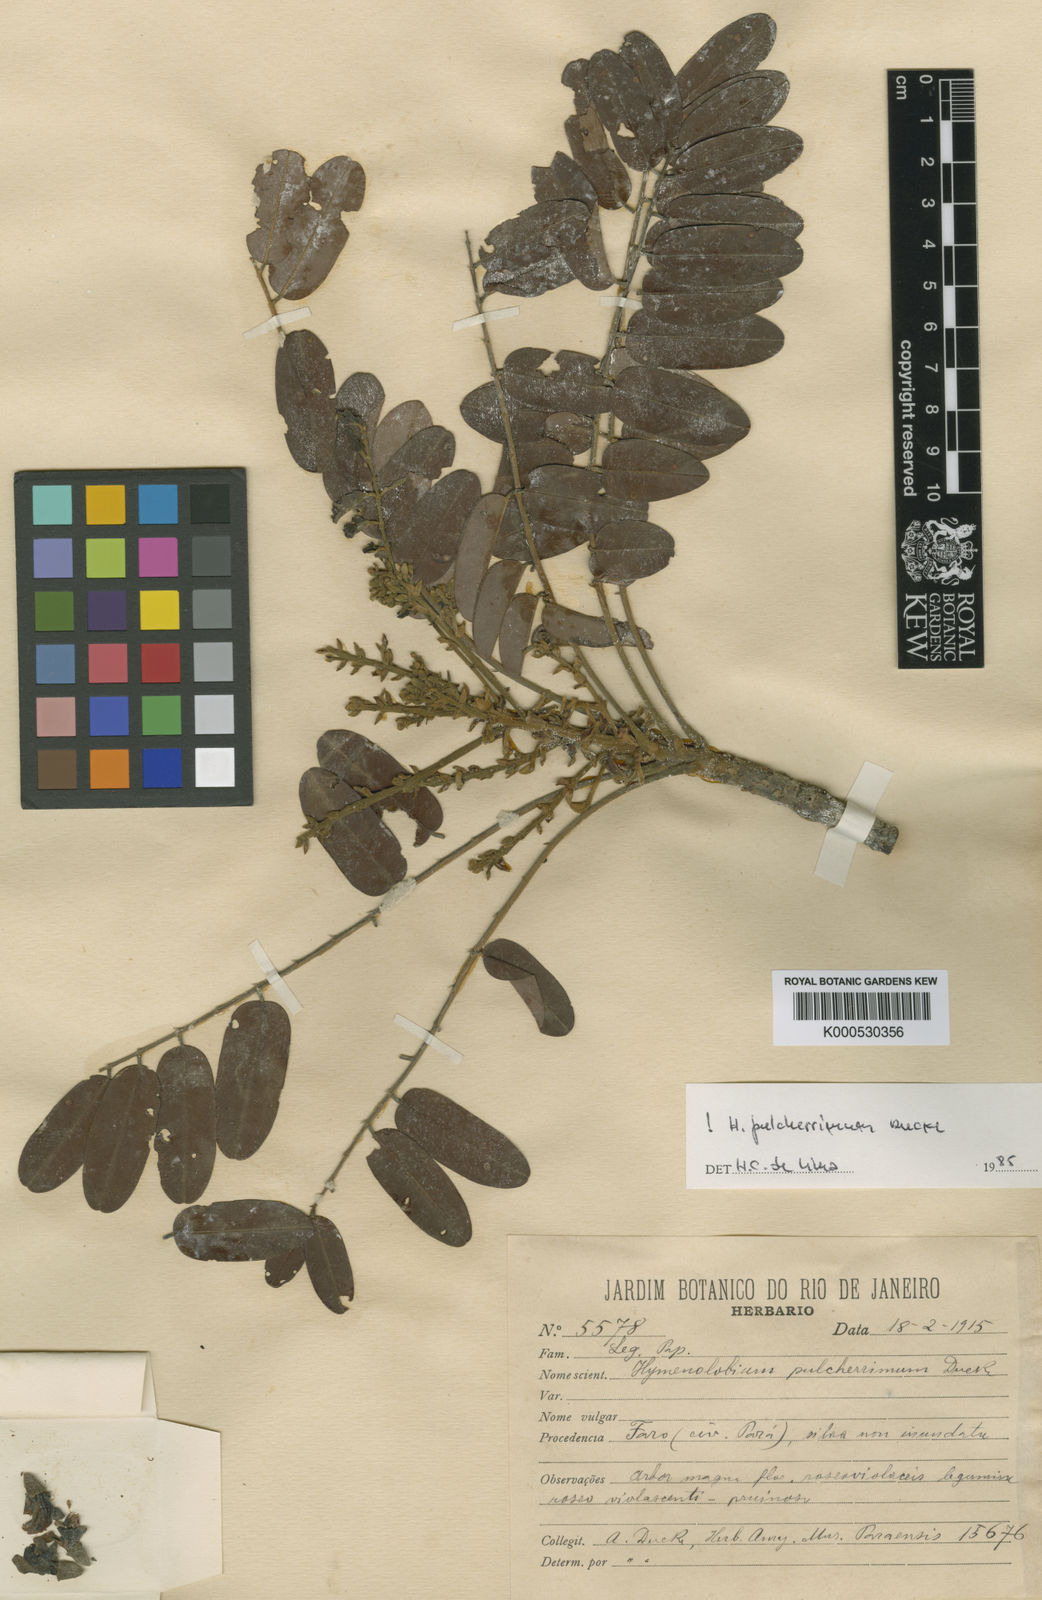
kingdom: Plantae
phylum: Tracheophyta
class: Magnoliopsida
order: Fabales
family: Fabaceae
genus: Hymenolobium
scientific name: Hymenolobium pulcherrimum
